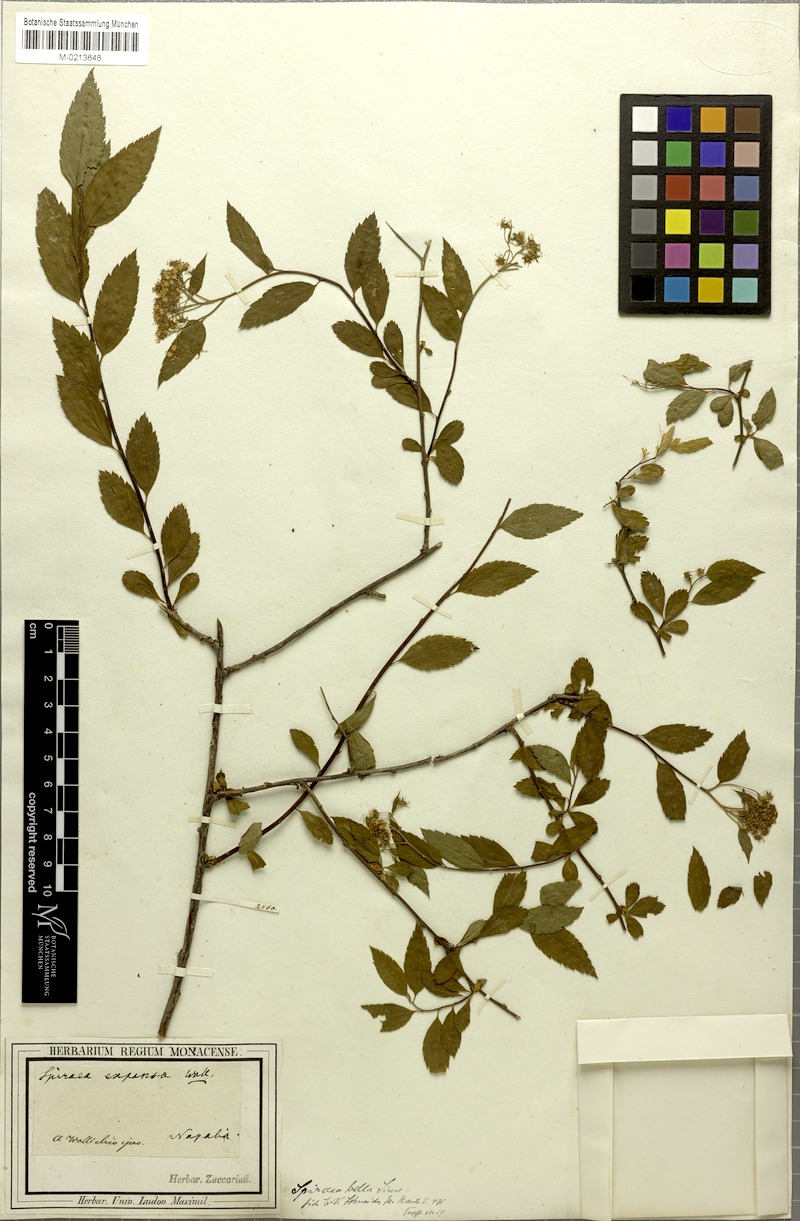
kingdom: Plantae
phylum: Tracheophyta
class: Magnoliopsida
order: Rosales
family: Rosaceae
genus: Spiraea
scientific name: Spiraea bella
